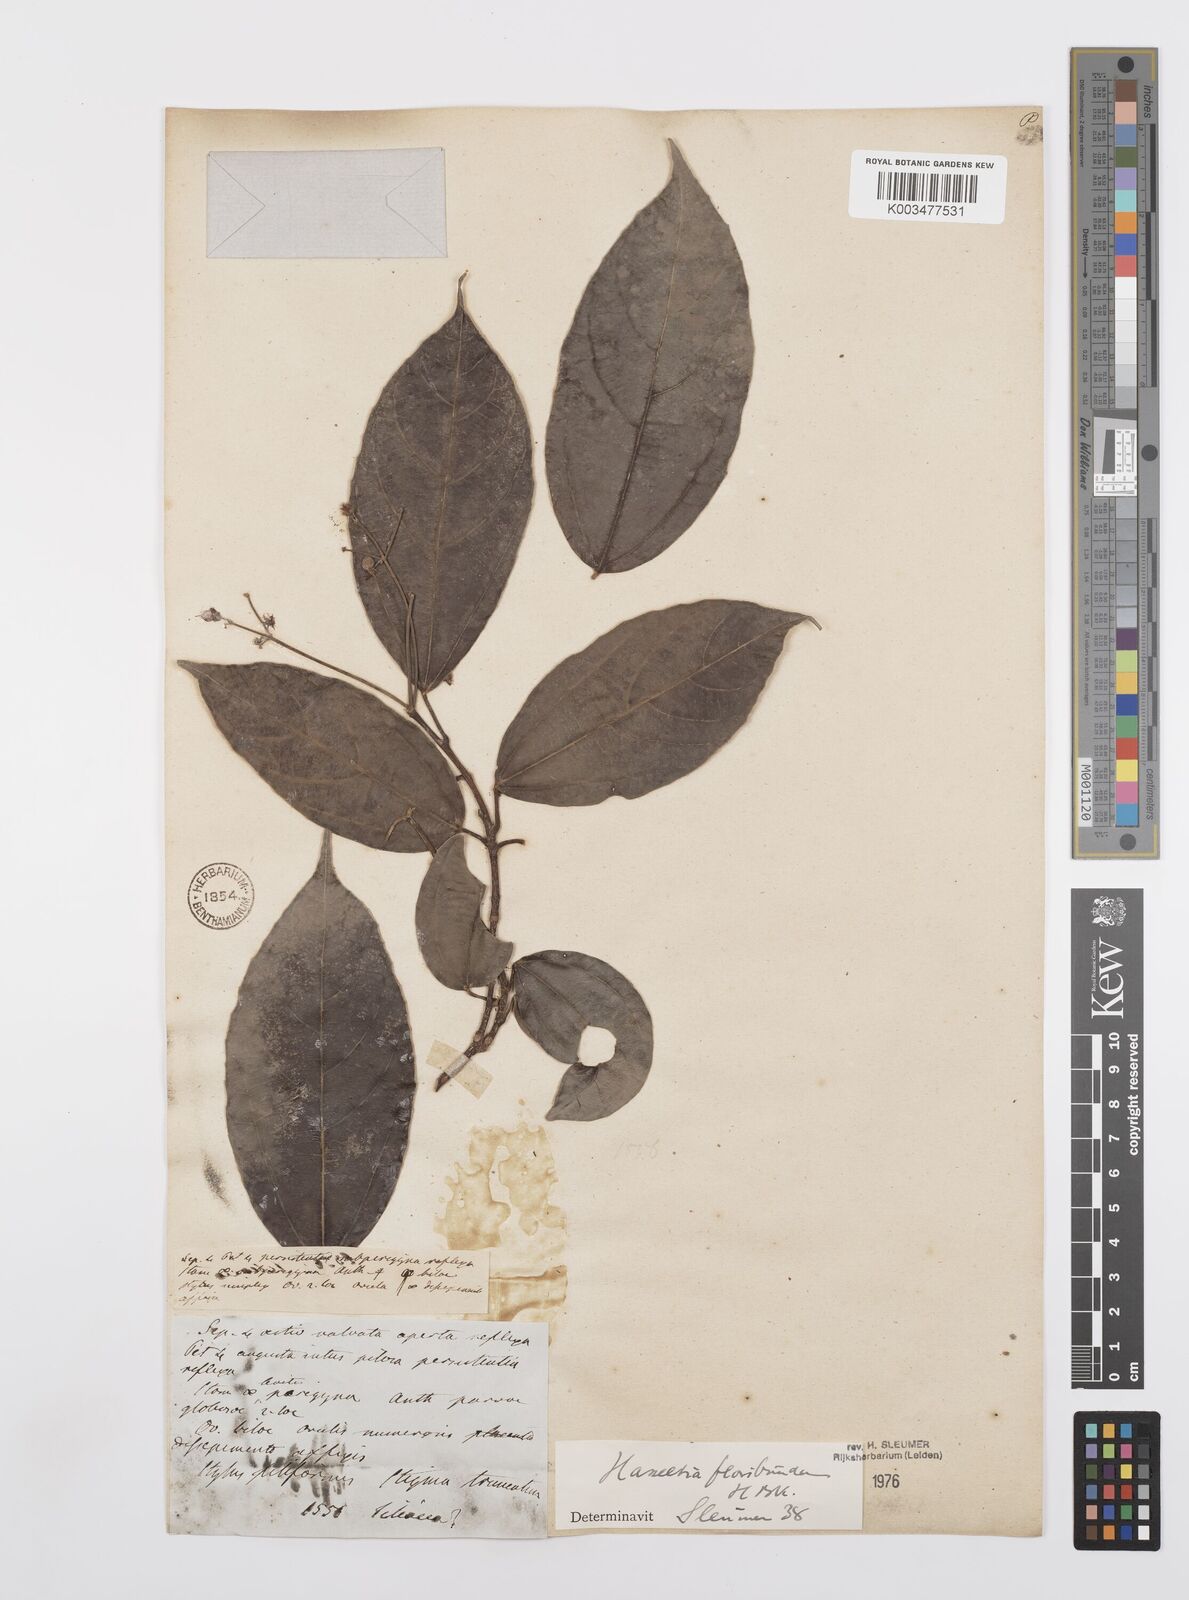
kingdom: Plantae
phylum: Tracheophyta
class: Magnoliopsida
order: Malpighiales
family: Salicaceae
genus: Hasseltia
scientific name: Hasseltia floribunda
